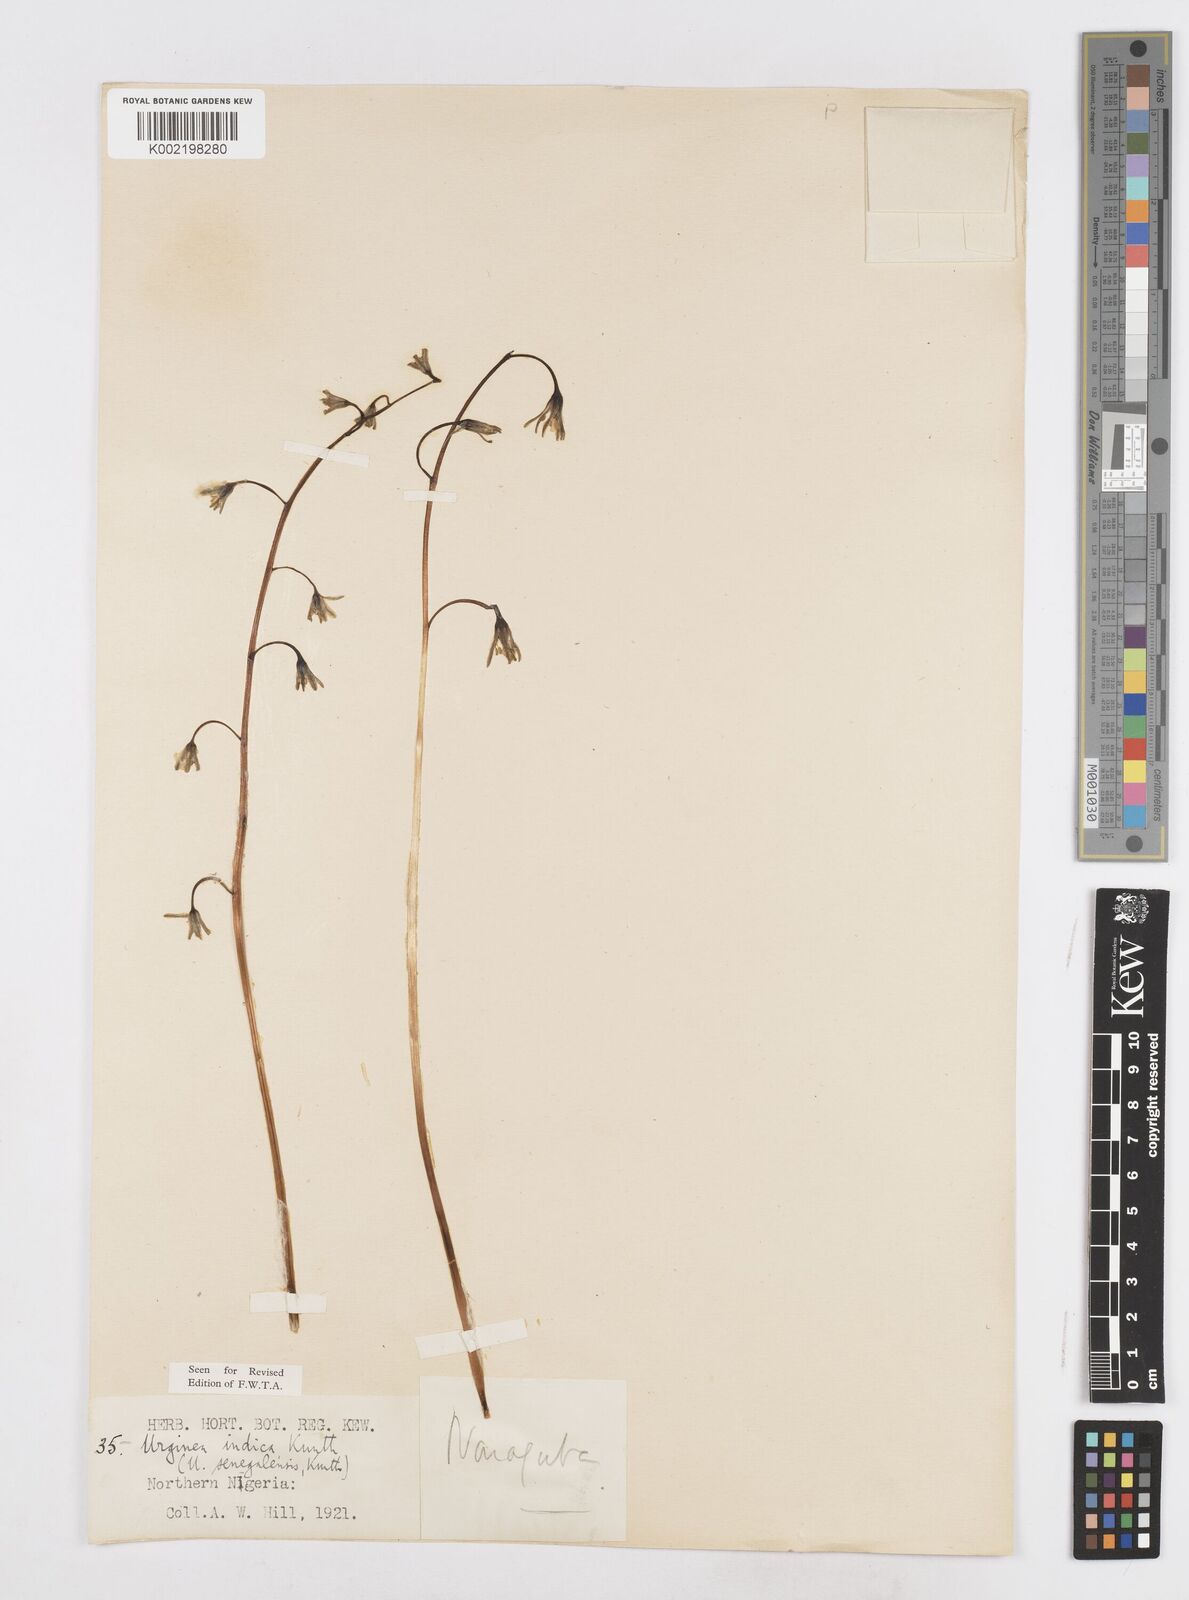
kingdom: Plantae
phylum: Tracheophyta
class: Liliopsida
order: Asparagales
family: Asparagaceae
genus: Drimia
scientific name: Drimia indica
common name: Indian-squill
